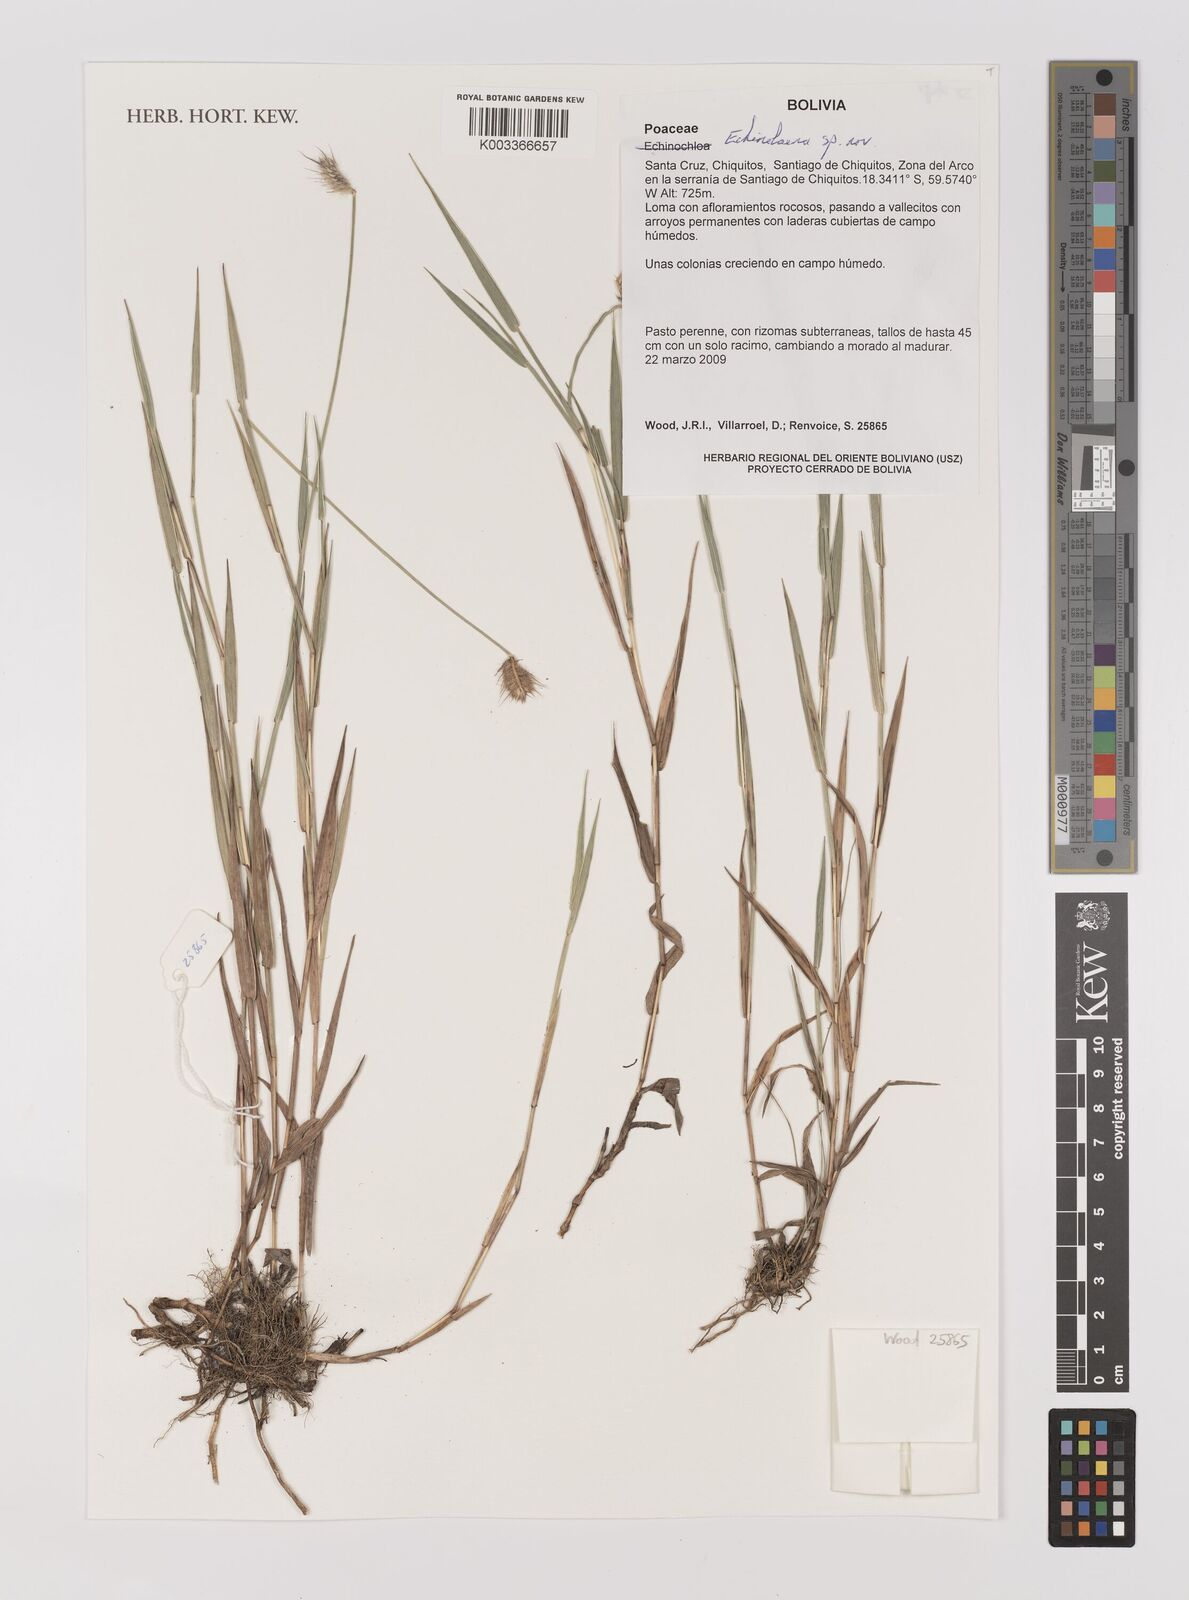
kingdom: Plantae
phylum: Tracheophyta
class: Liliopsida
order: Poales
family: Poaceae
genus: Echinolaena
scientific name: Echinolaena inflexa
